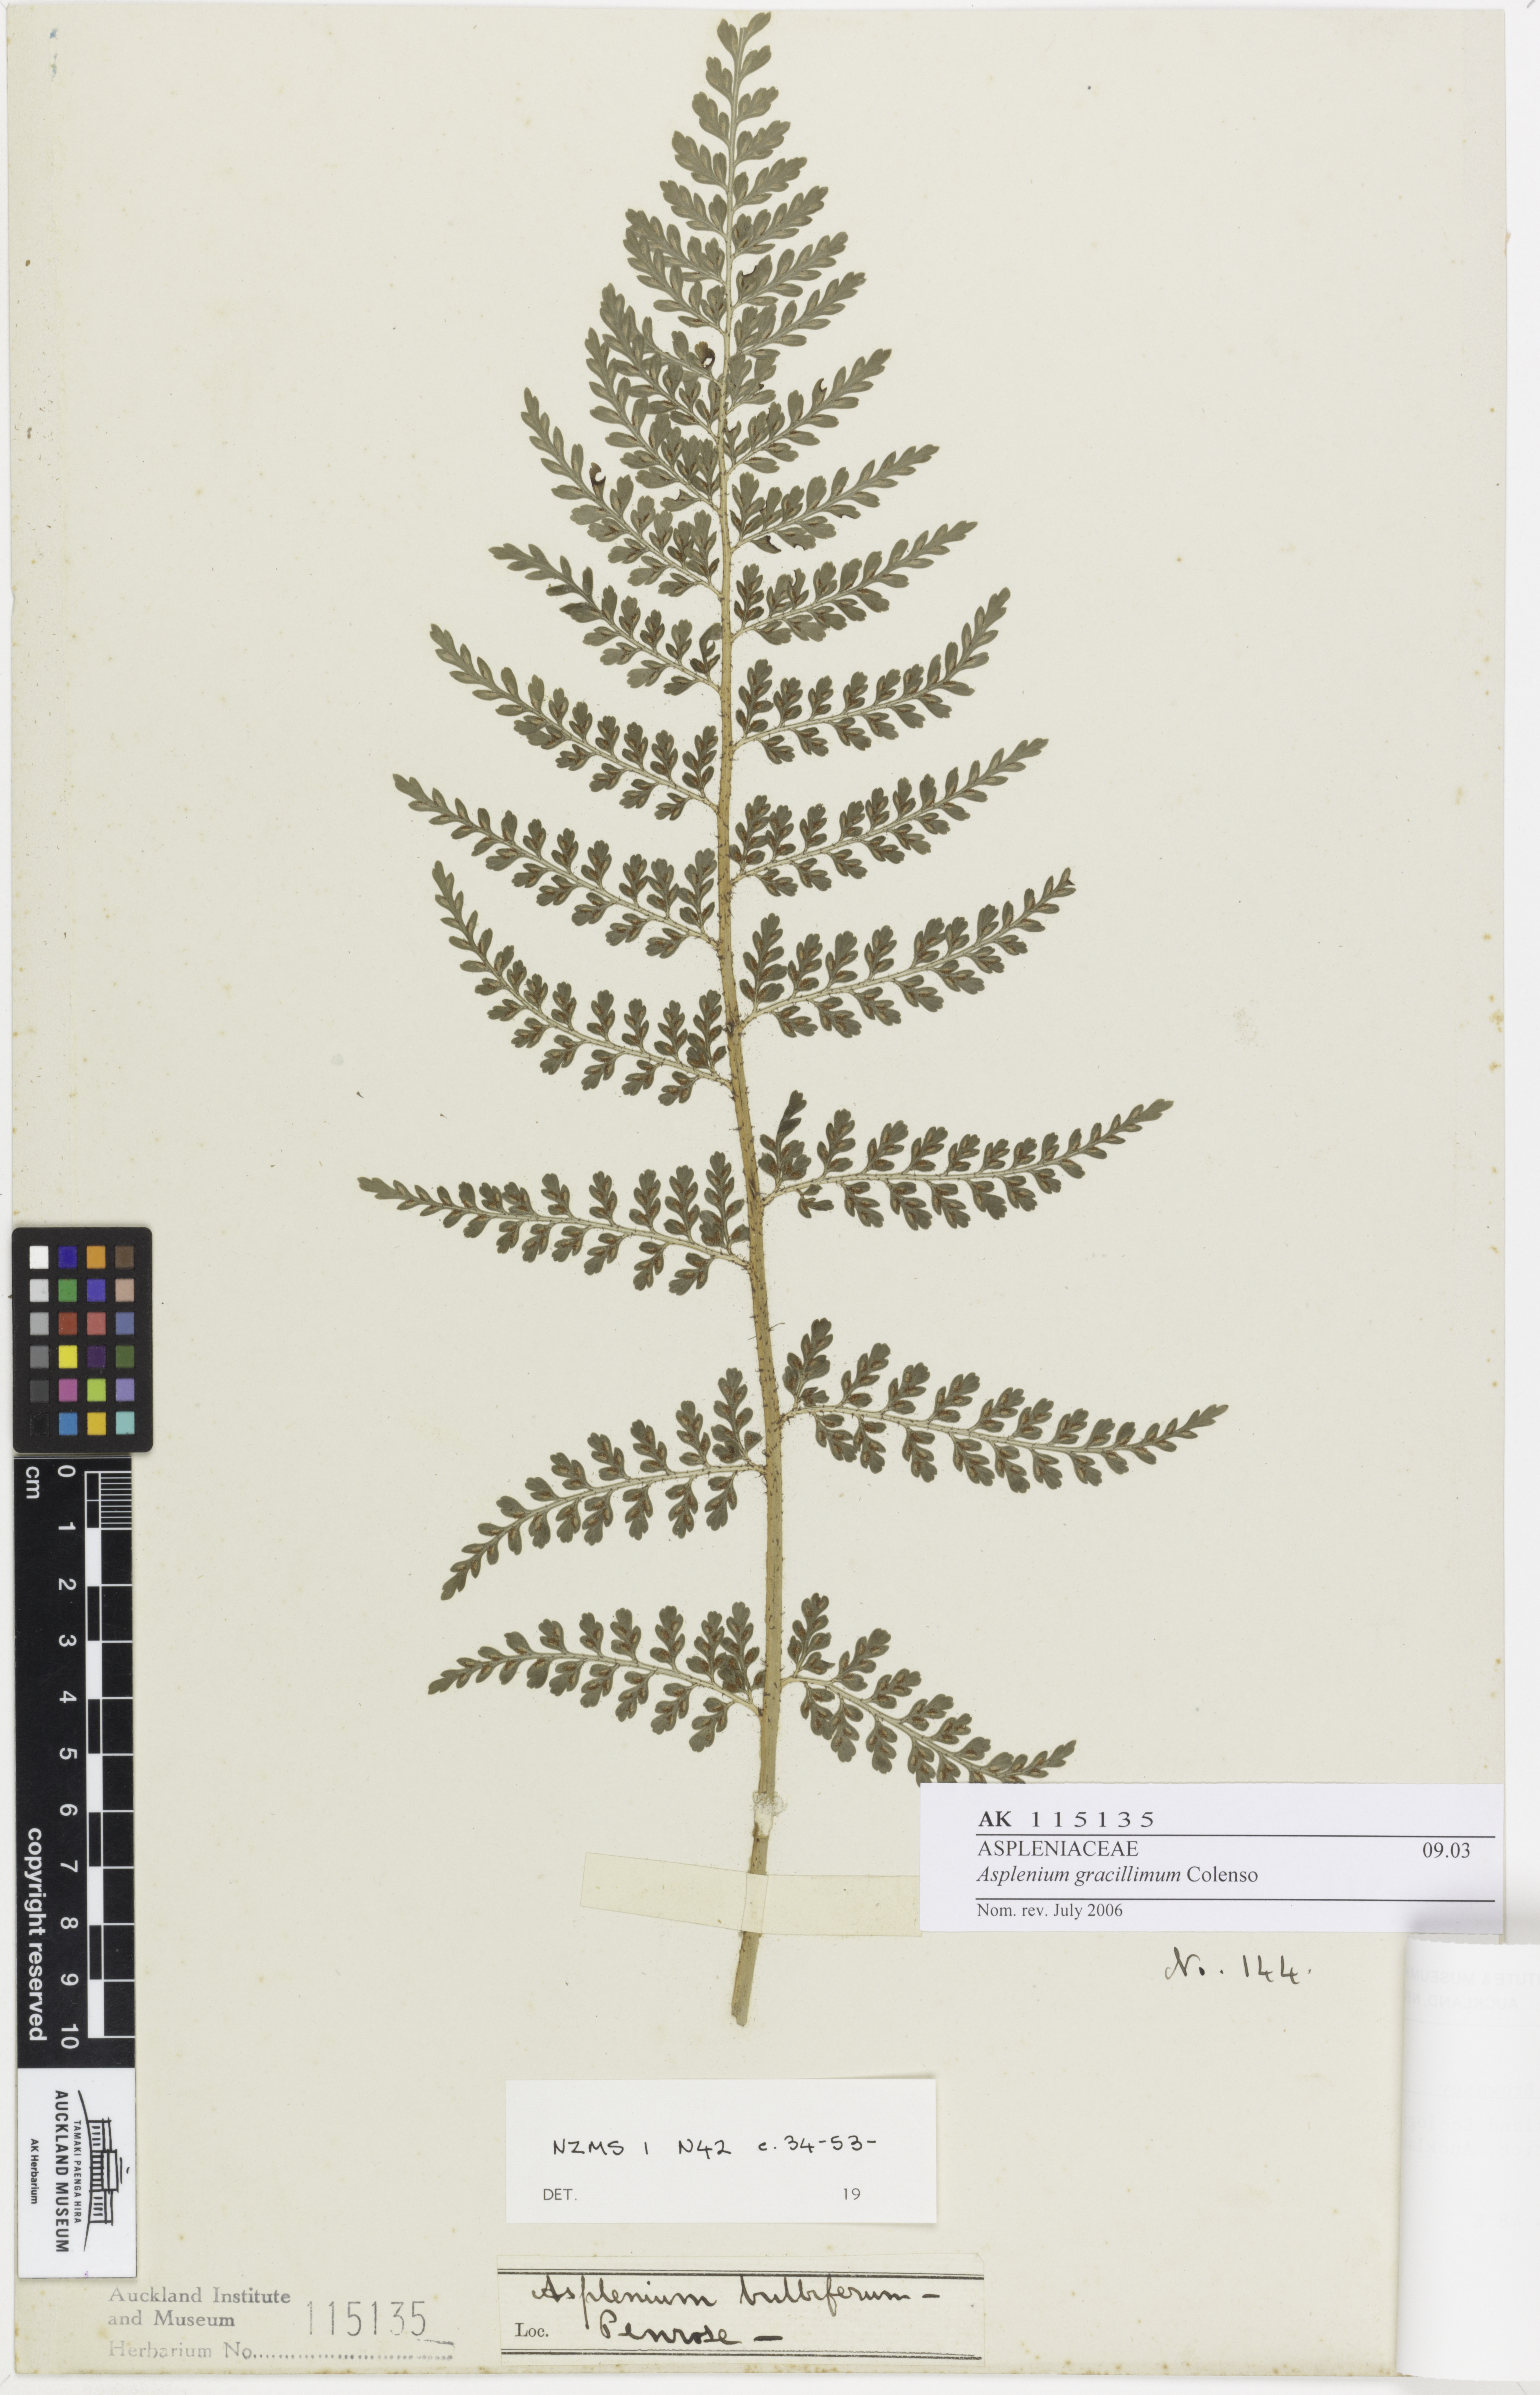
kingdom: Plantae
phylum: Tracheophyta
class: Polypodiopsida
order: Polypodiales
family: Aspleniaceae
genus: Asplenium
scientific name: Asplenium bulbiferum
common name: Mother fern
